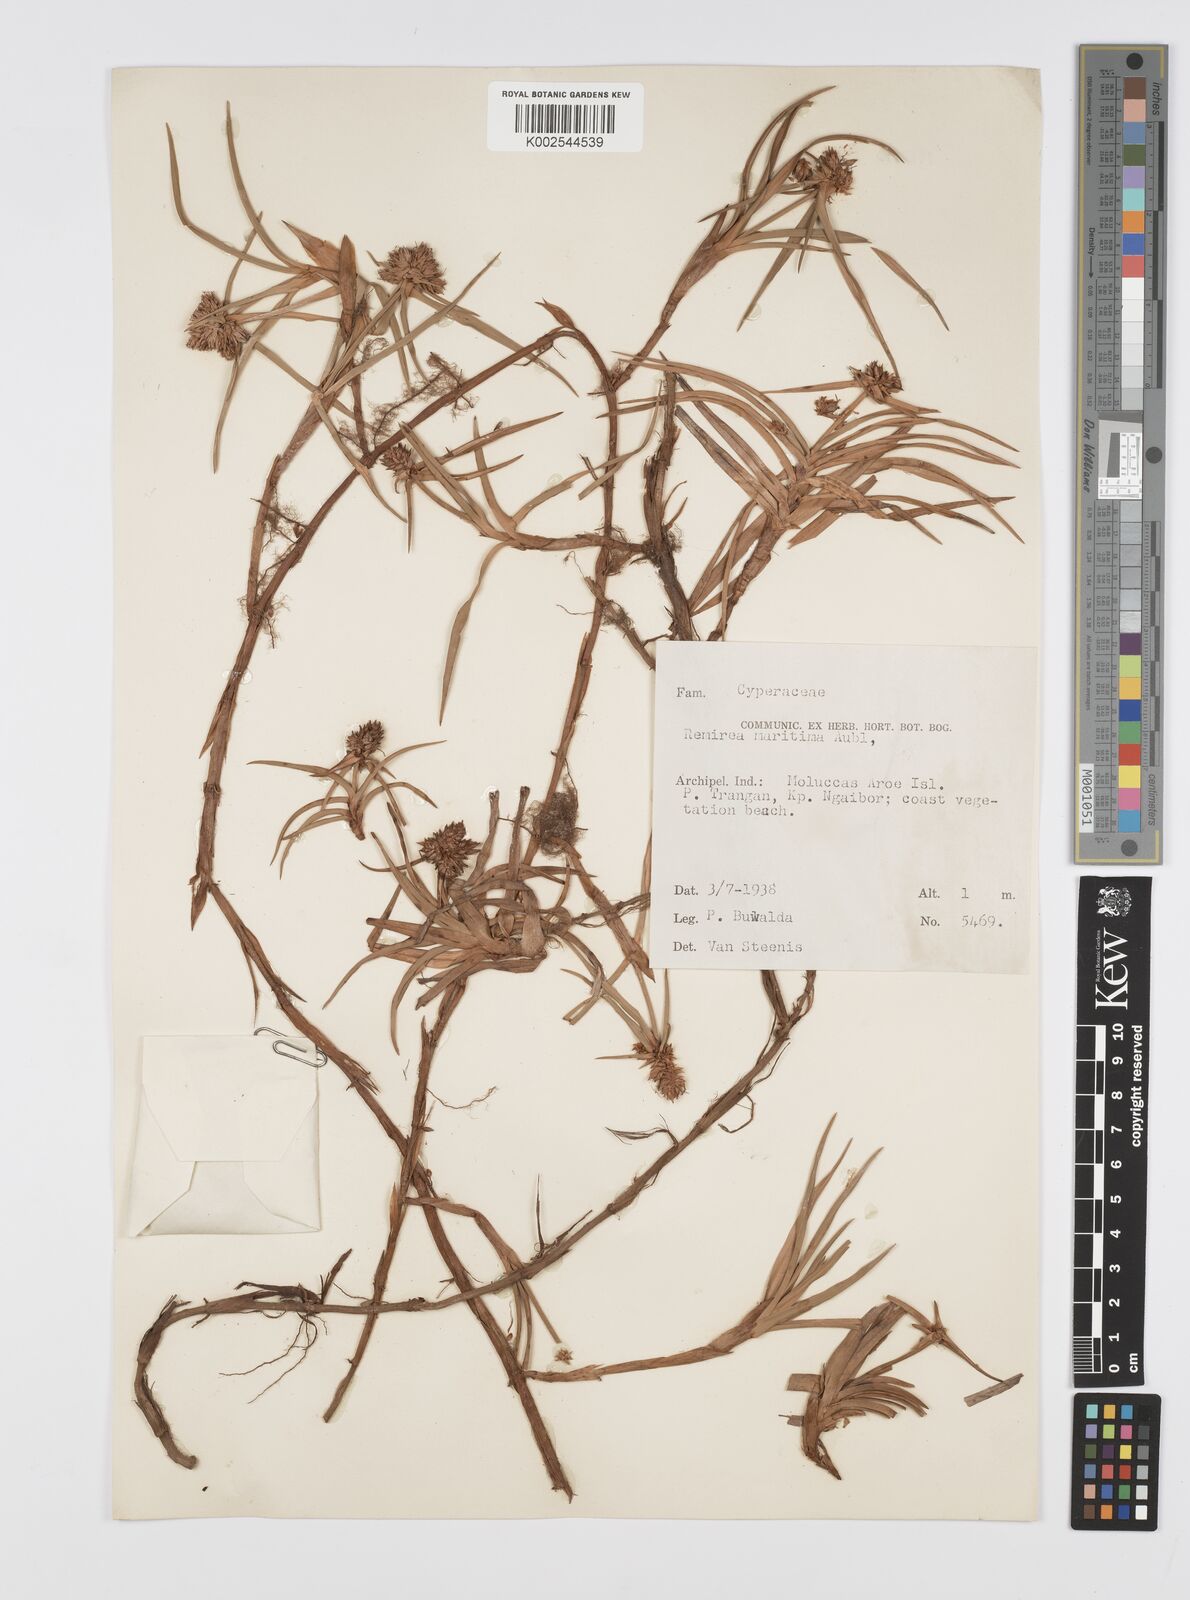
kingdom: Plantae
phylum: Tracheophyta
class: Liliopsida
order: Poales
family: Cyperaceae
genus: Cyperus
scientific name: Cyperus
